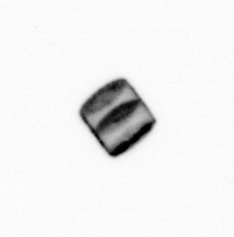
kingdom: Chromista
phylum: Ochrophyta
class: Bacillariophyceae
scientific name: Bacillariophyceae
